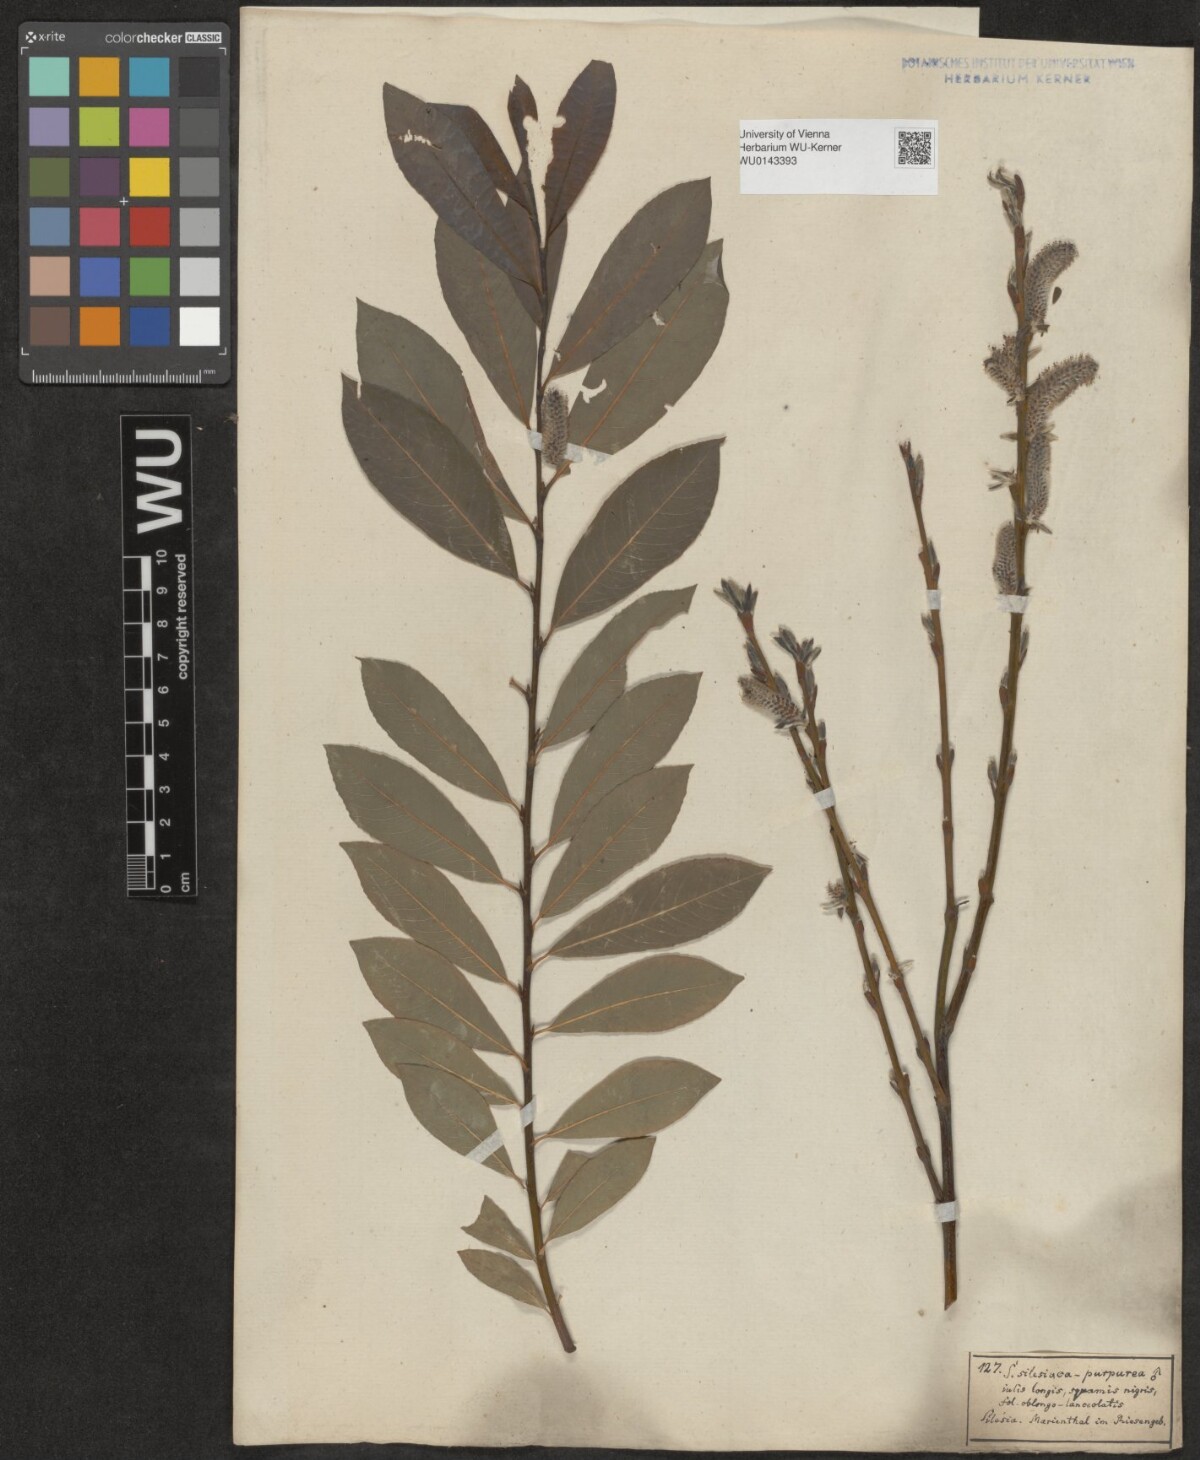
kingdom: Plantae
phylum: Tracheophyta
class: Magnoliopsida
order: Malpighiales
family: Salicaceae
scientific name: Salicaceae
